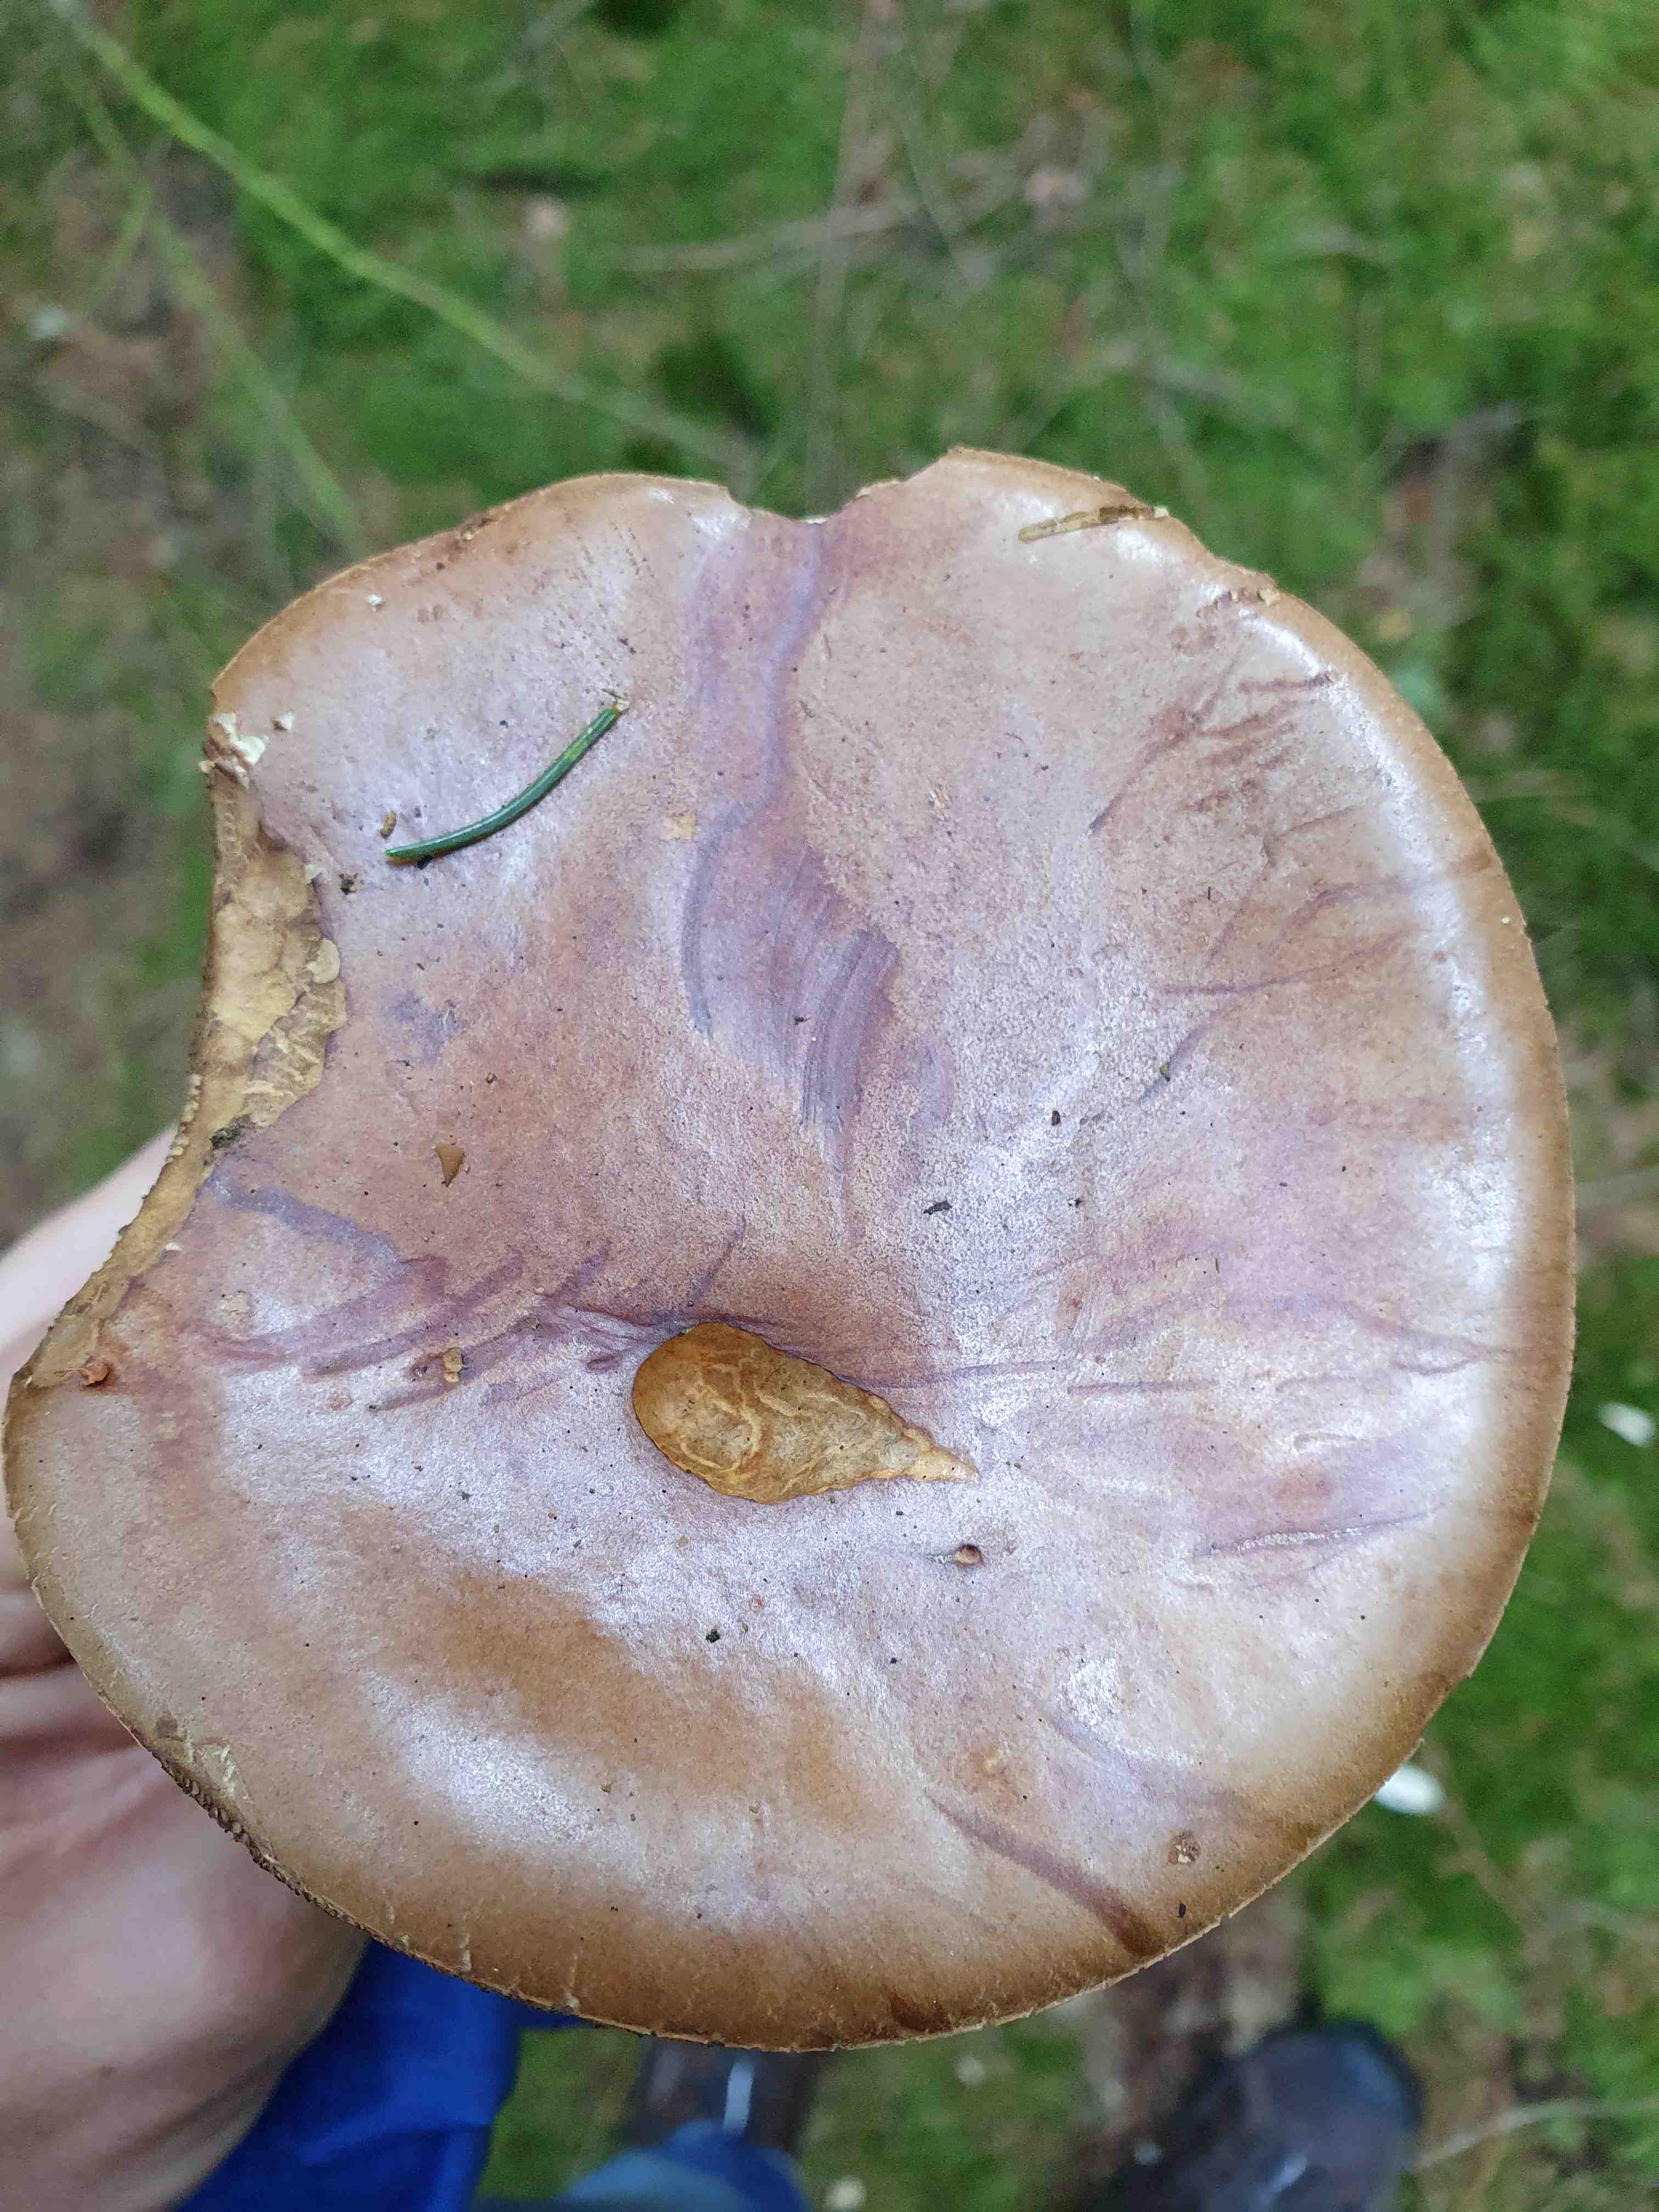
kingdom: Fungi
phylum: Basidiomycota
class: Agaricomycetes
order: Boletales
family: Boletaceae
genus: Imleria
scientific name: Imleria badia
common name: brunstokket rørhat
